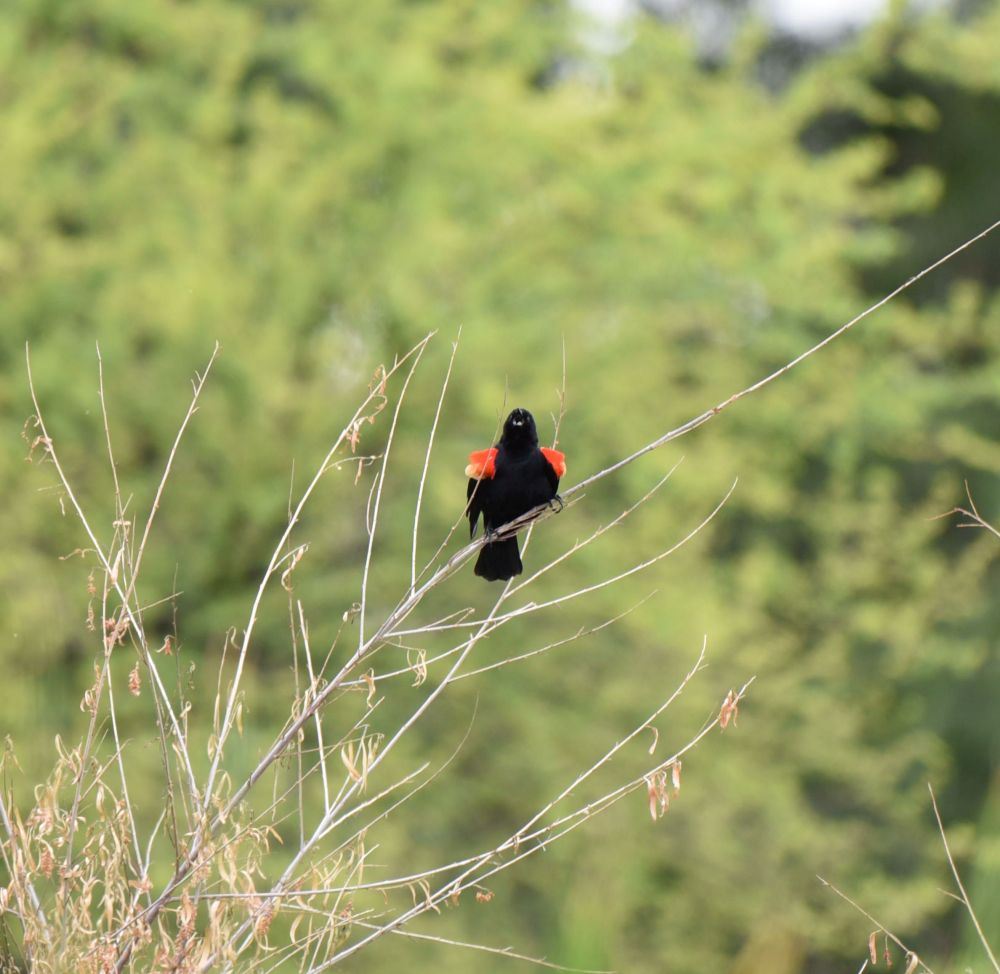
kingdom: Animalia
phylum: Chordata
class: Aves
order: Passeriformes
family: Icteridae
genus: Agelaius
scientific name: Agelaius phoeniceus
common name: Red-winged blackbird
